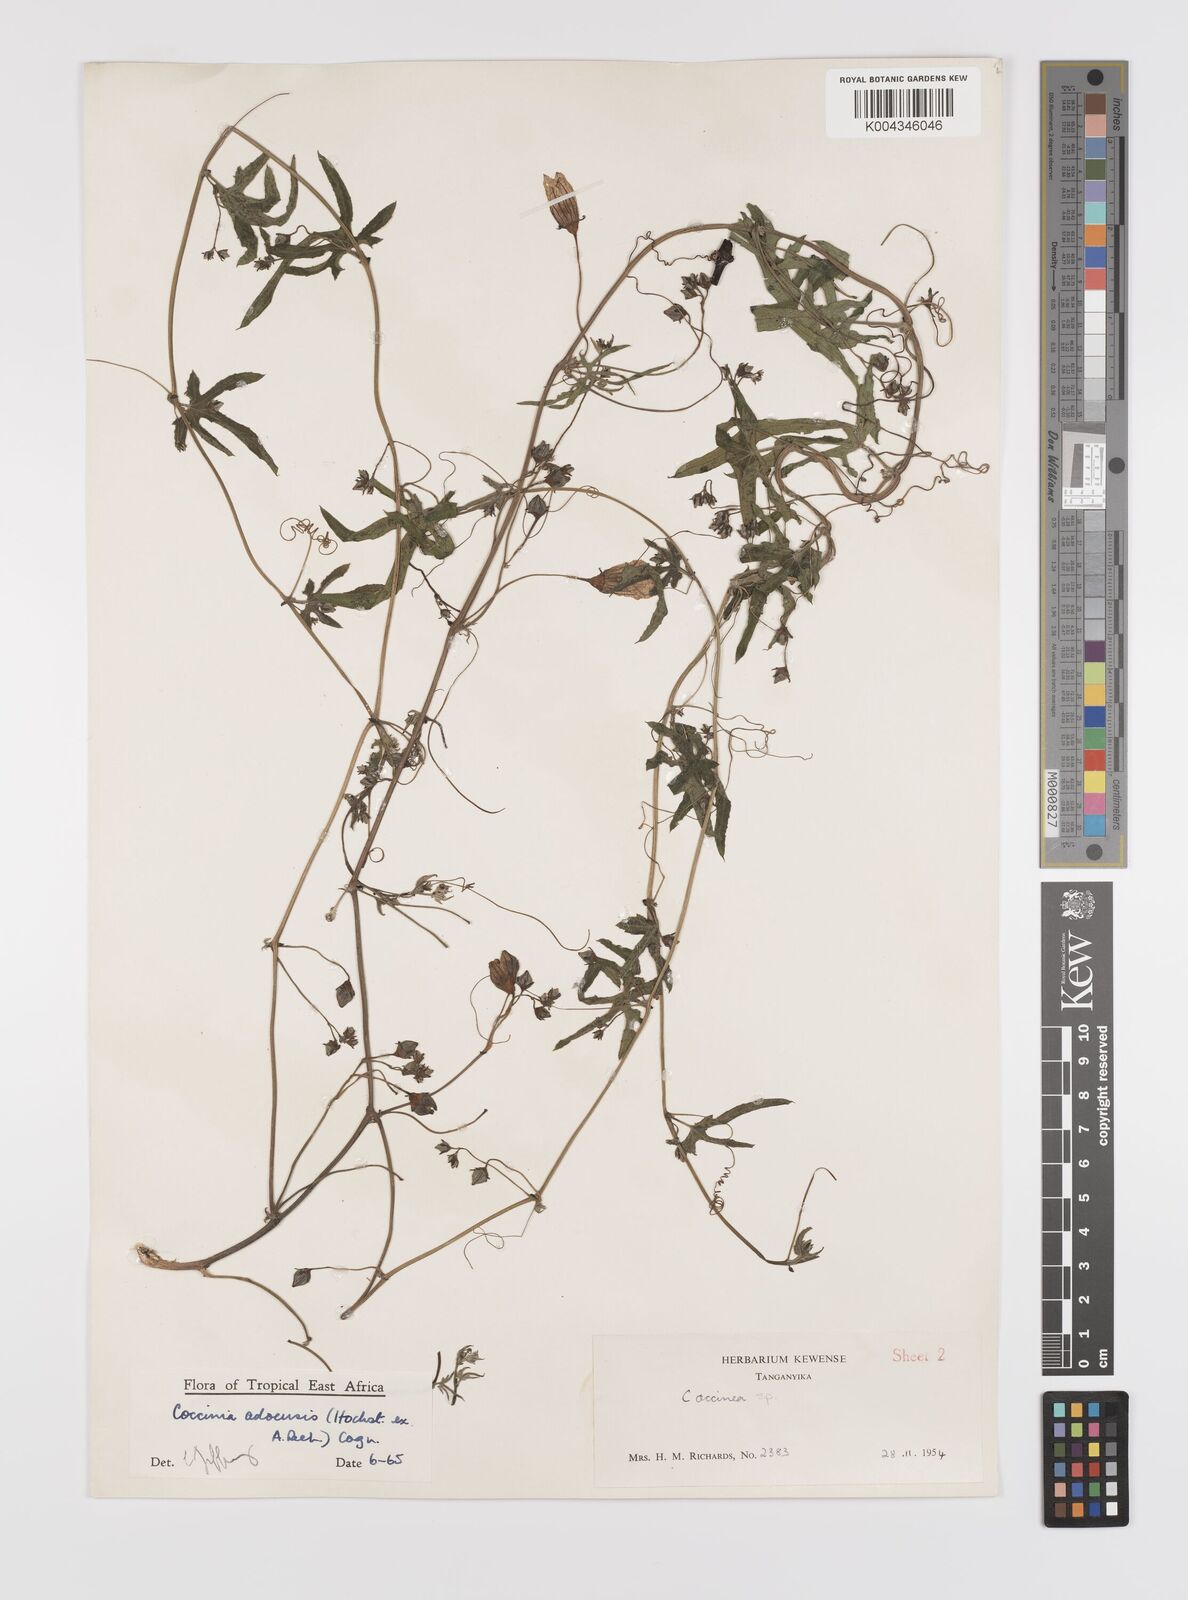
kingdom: Plantae
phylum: Tracheophyta
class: Magnoliopsida
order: Cucurbitales
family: Cucurbitaceae
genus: Coccinia
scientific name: Coccinia adoensis
